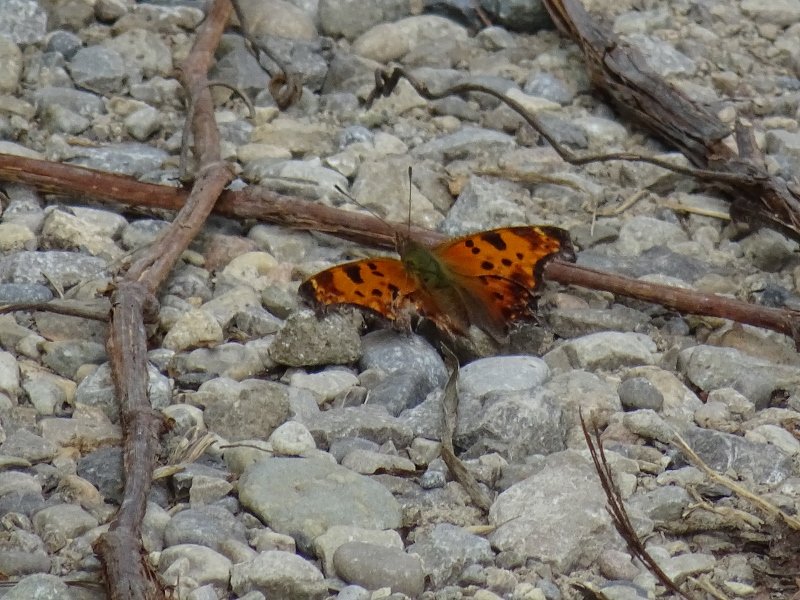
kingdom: Animalia
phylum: Arthropoda
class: Insecta
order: Lepidoptera
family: Nymphalidae
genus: Polygonia
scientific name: Polygonia comma
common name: Eastern Comma
